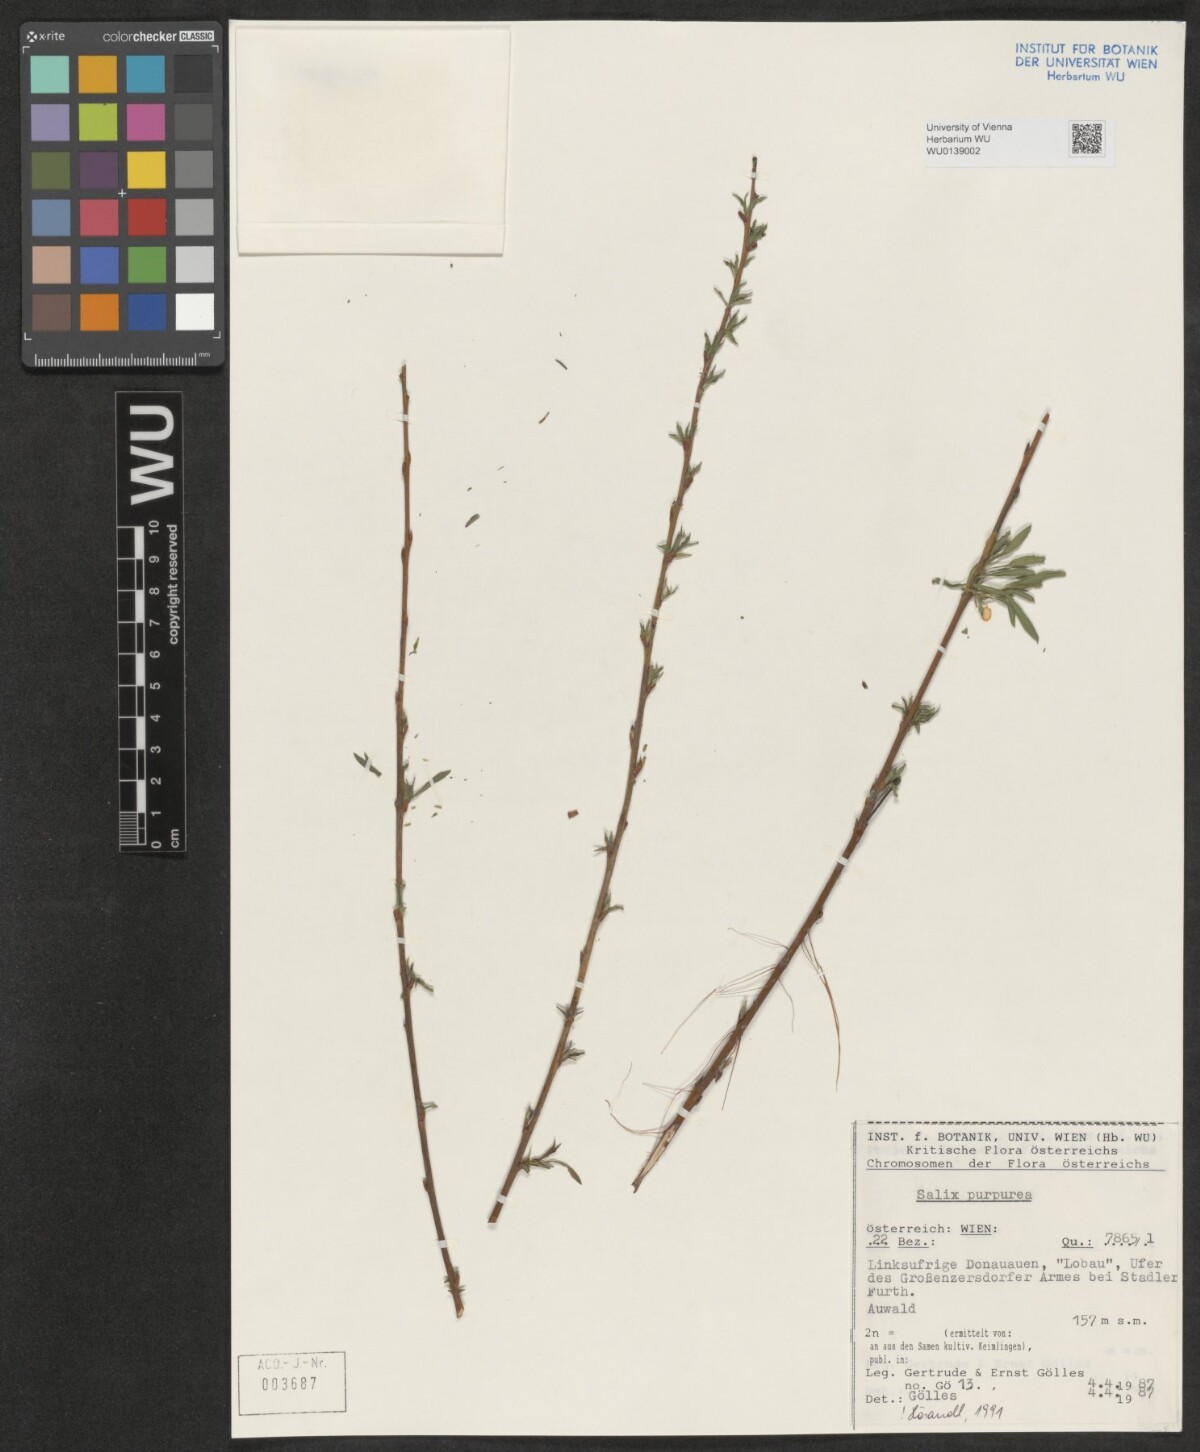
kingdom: Plantae
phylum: Tracheophyta
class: Magnoliopsida
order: Malpighiales
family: Salicaceae
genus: Salix
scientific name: Salix purpurea
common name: Purple willow
